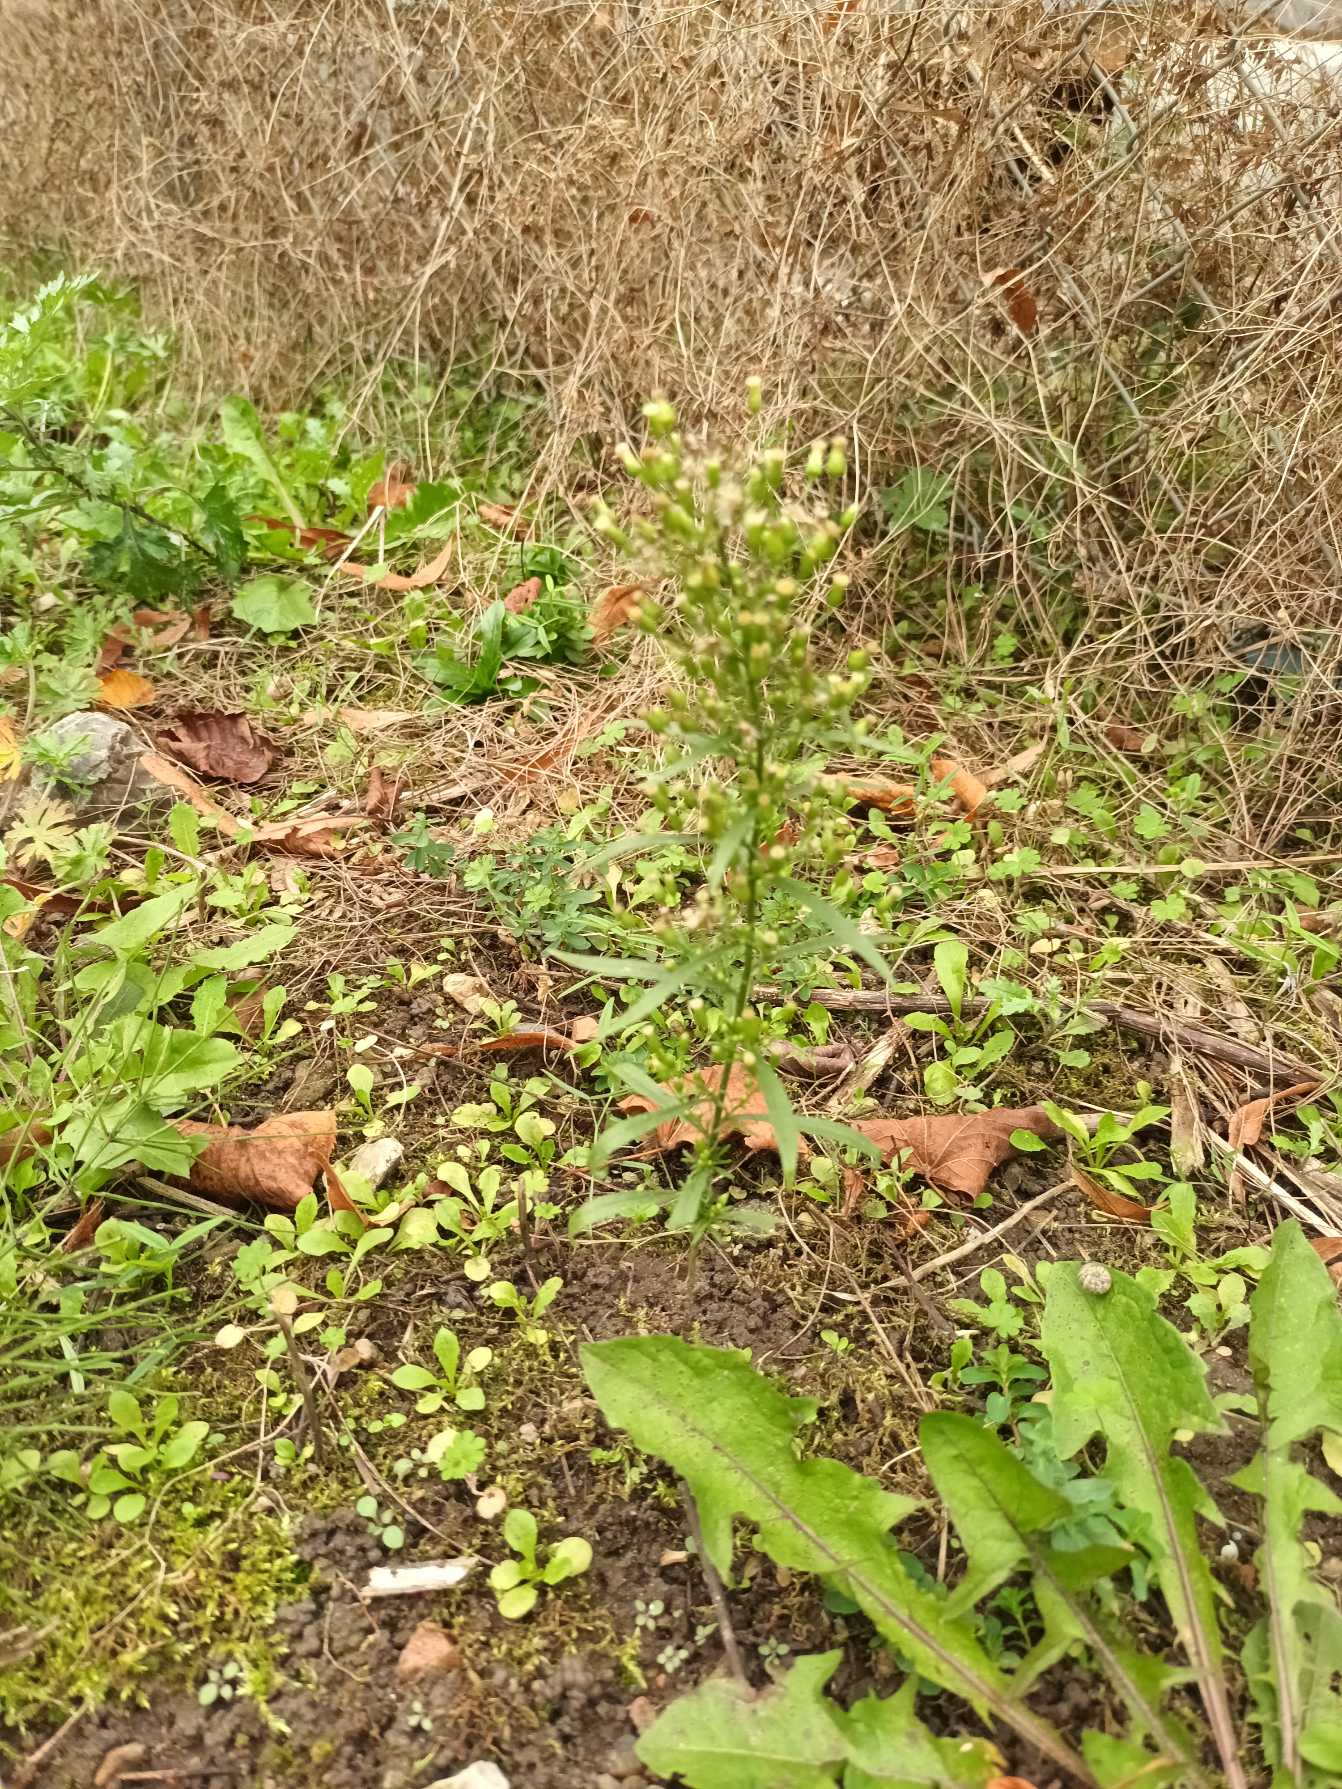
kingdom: Plantae
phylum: Tracheophyta
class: Magnoliopsida
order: Asterales
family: Asteraceae
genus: Erigeron
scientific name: Erigeron canadensis
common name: Kanadisk bakkestjerne
